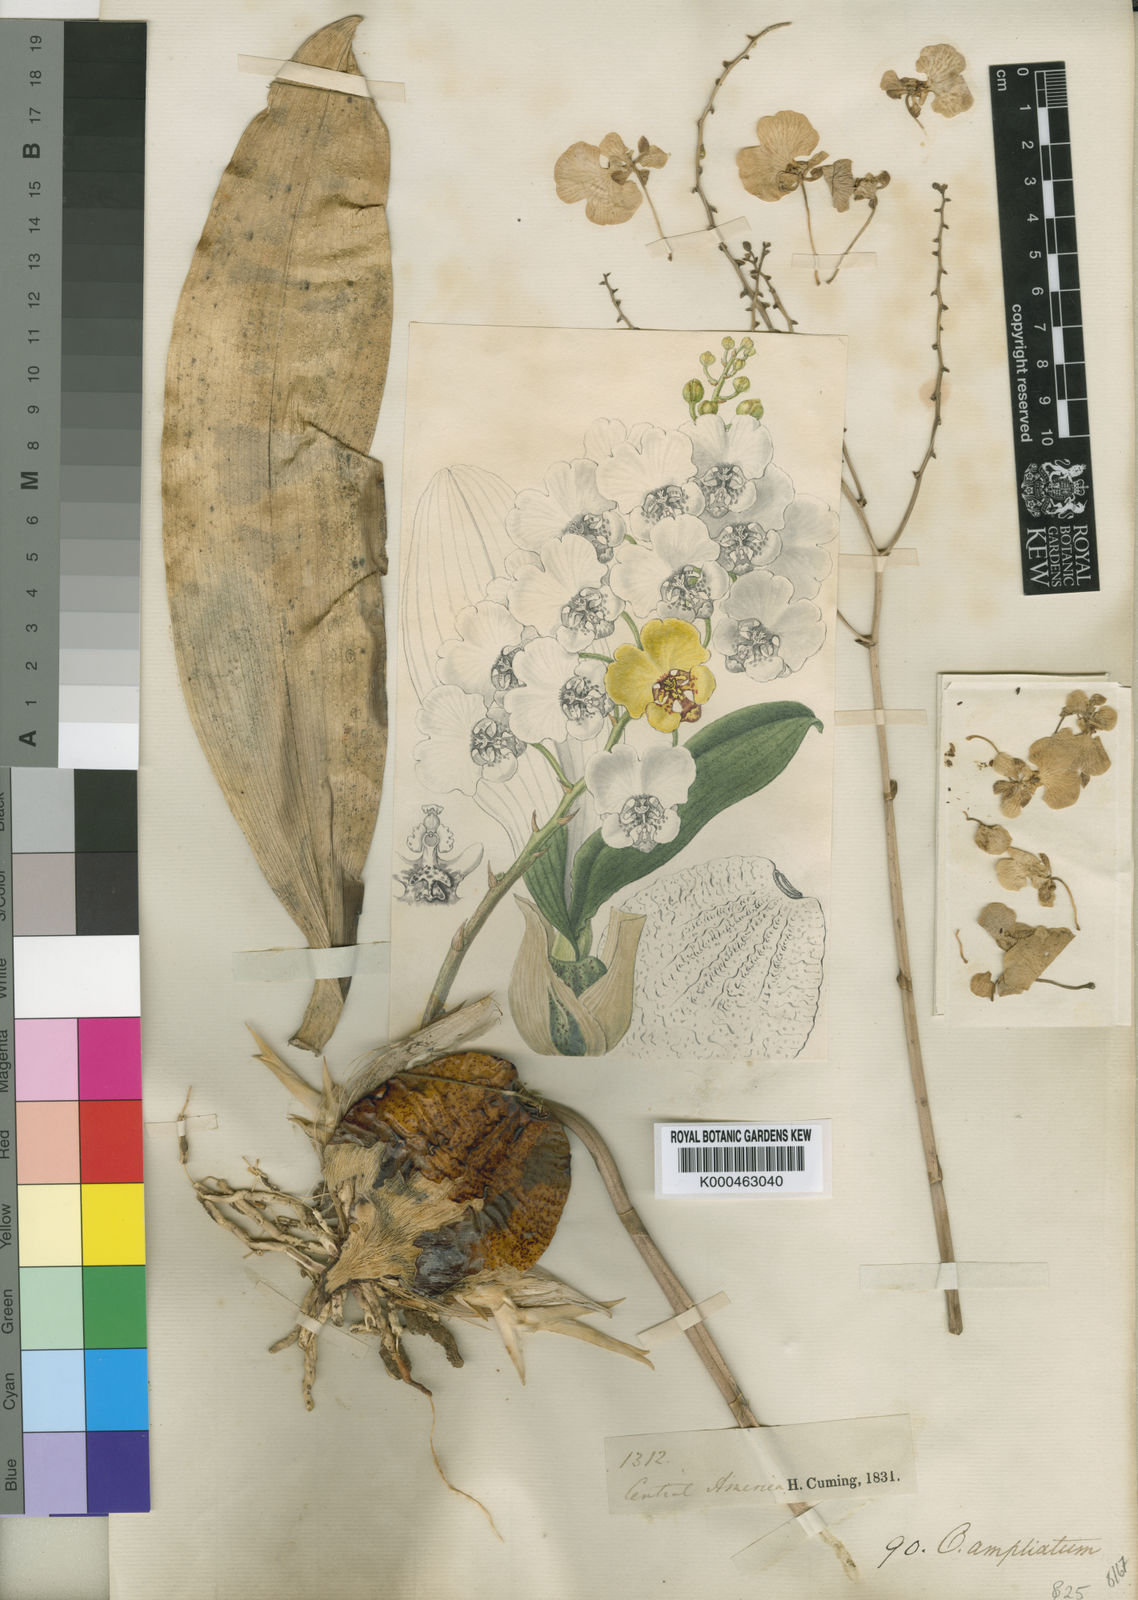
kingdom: Plantae
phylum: Tracheophyta
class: Liliopsida
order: Asparagales
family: Orchidaceae
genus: Rossioglossum
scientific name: Rossioglossum ampliatum
